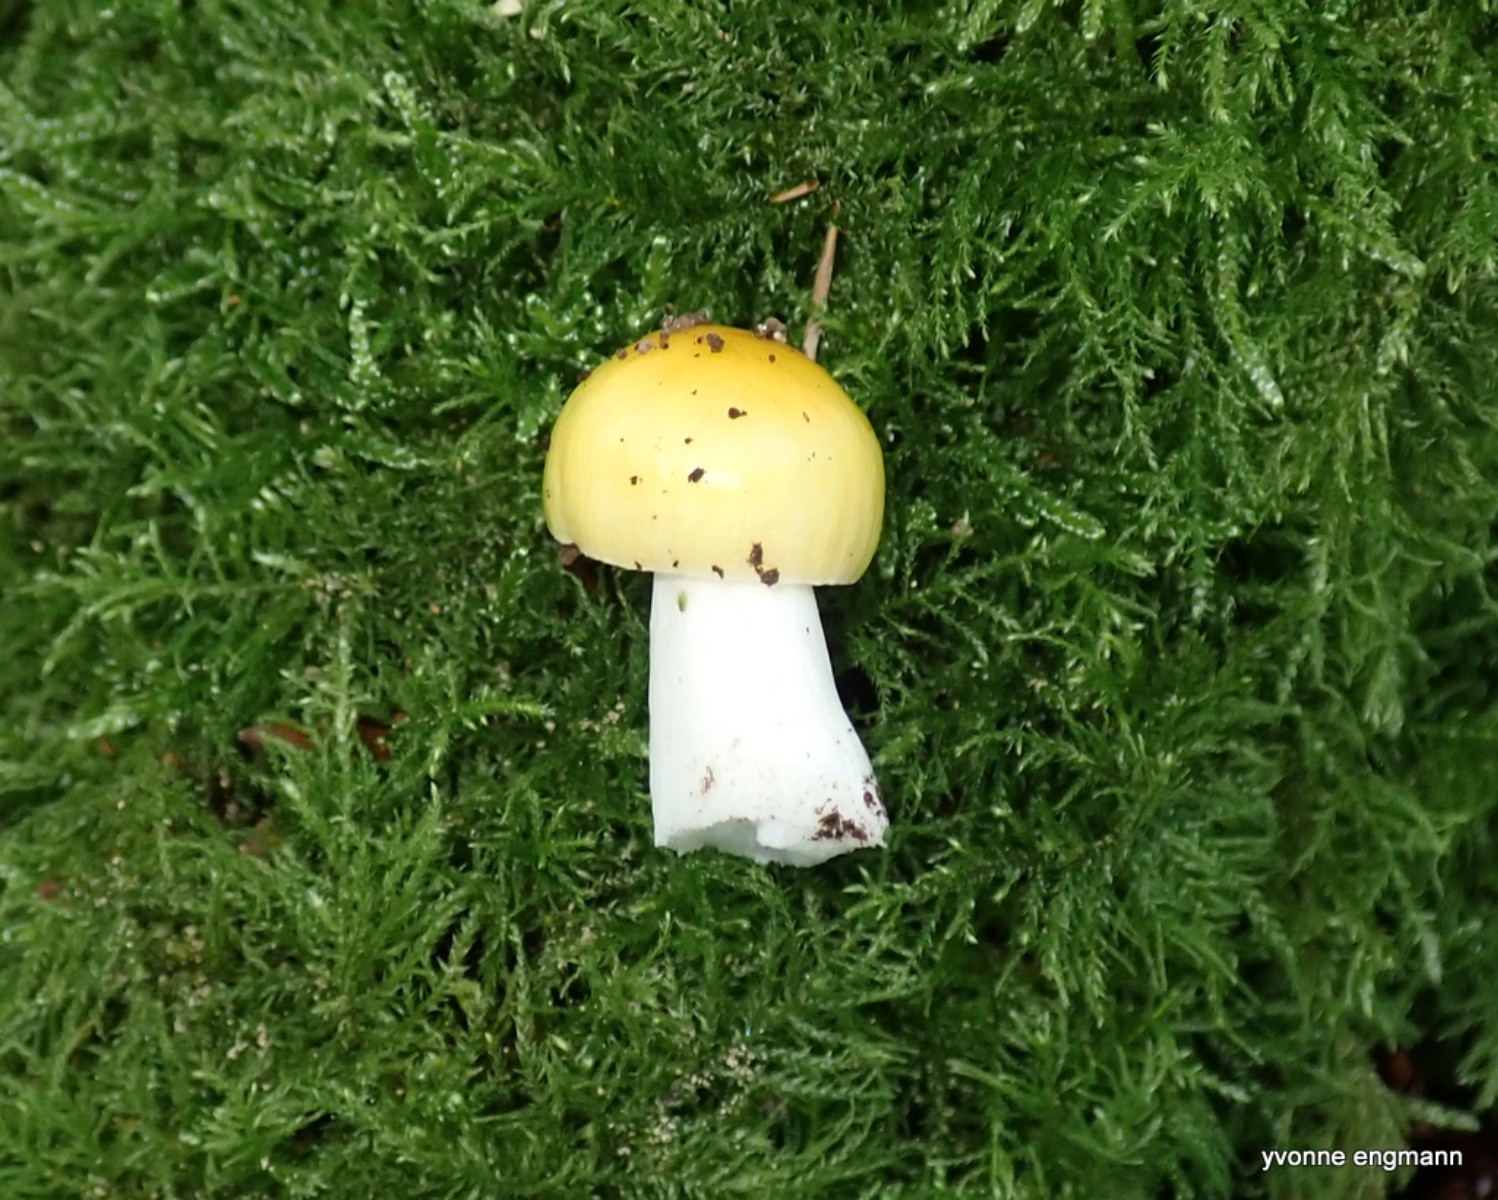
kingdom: Fungi
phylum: Basidiomycota
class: Agaricomycetes
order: Russulales
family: Russulaceae
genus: Russula
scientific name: Russula solaris
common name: sol-skørhat
